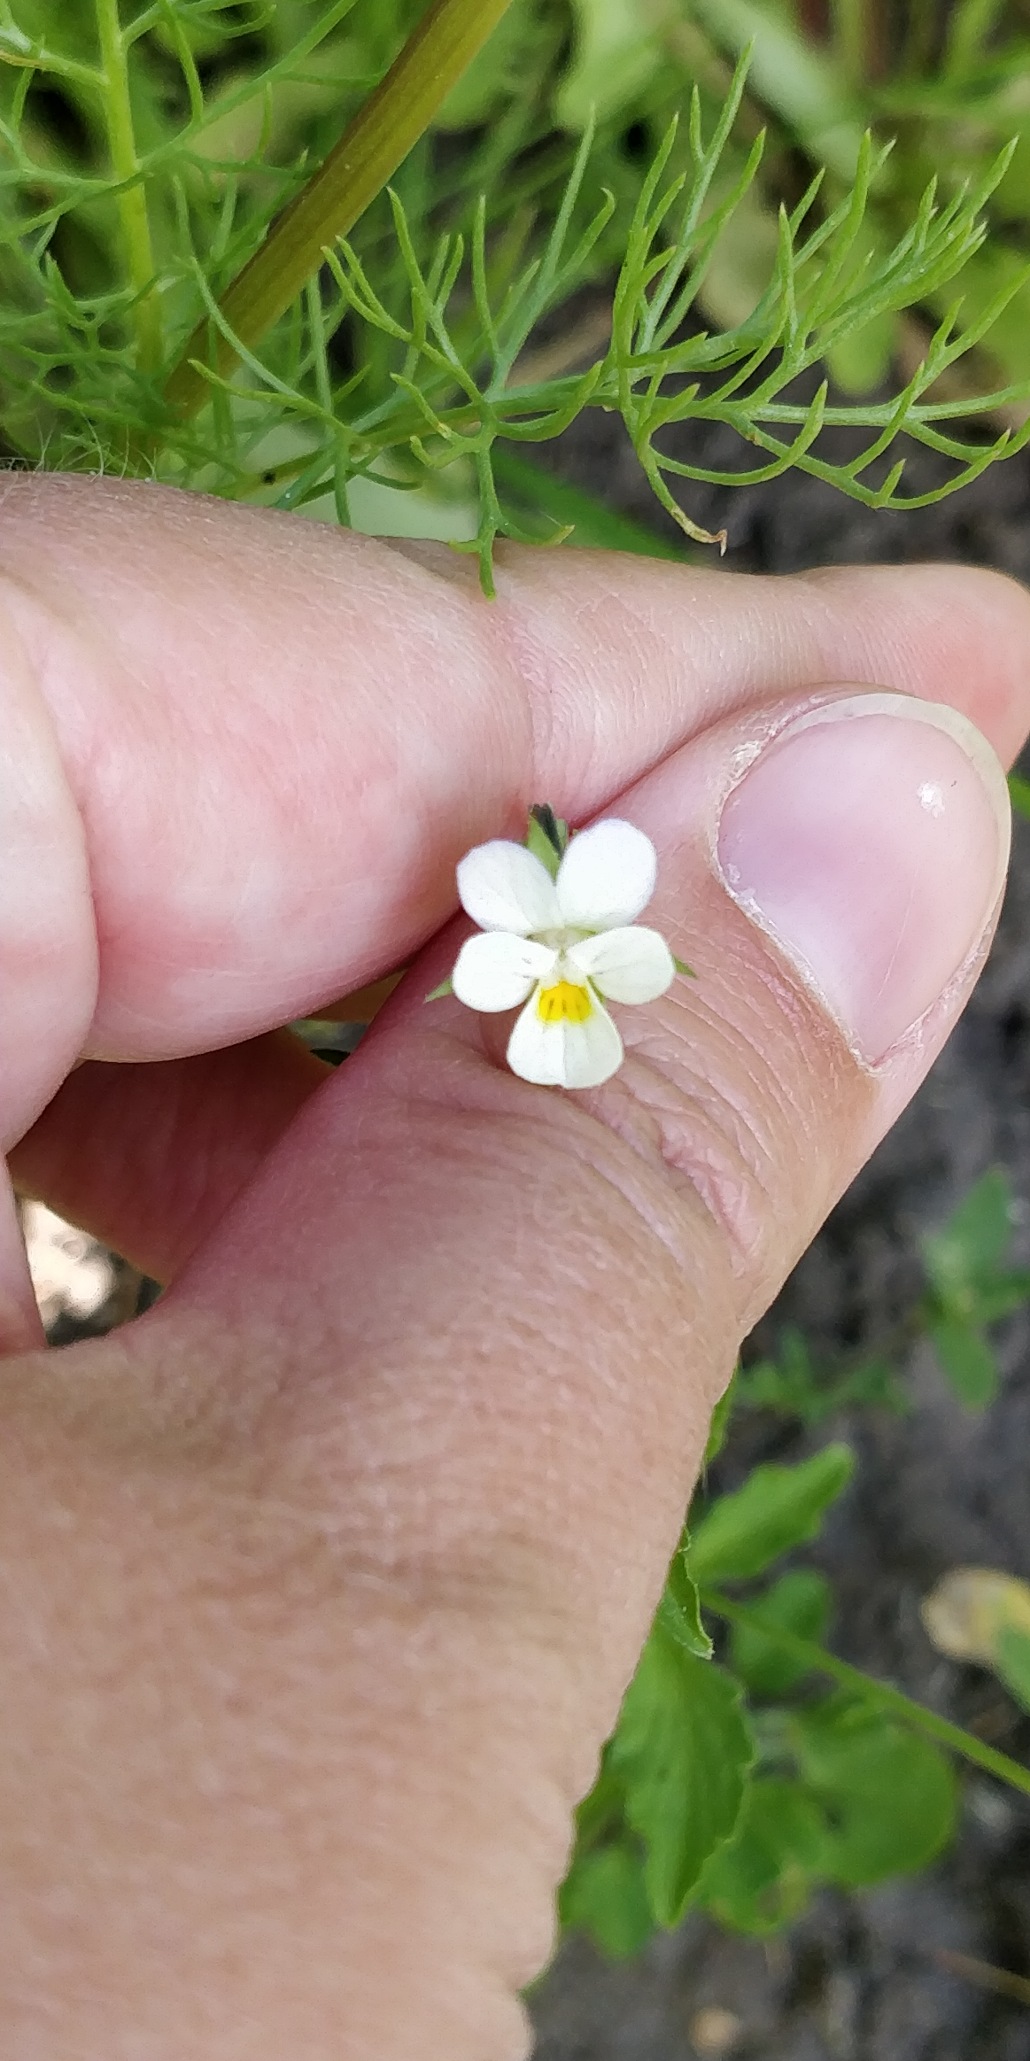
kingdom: Plantae
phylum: Tracheophyta
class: Magnoliopsida
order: Malpighiales
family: Violaceae
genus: Viola
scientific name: Viola arvensis
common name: Ager-stedmoderblomst
